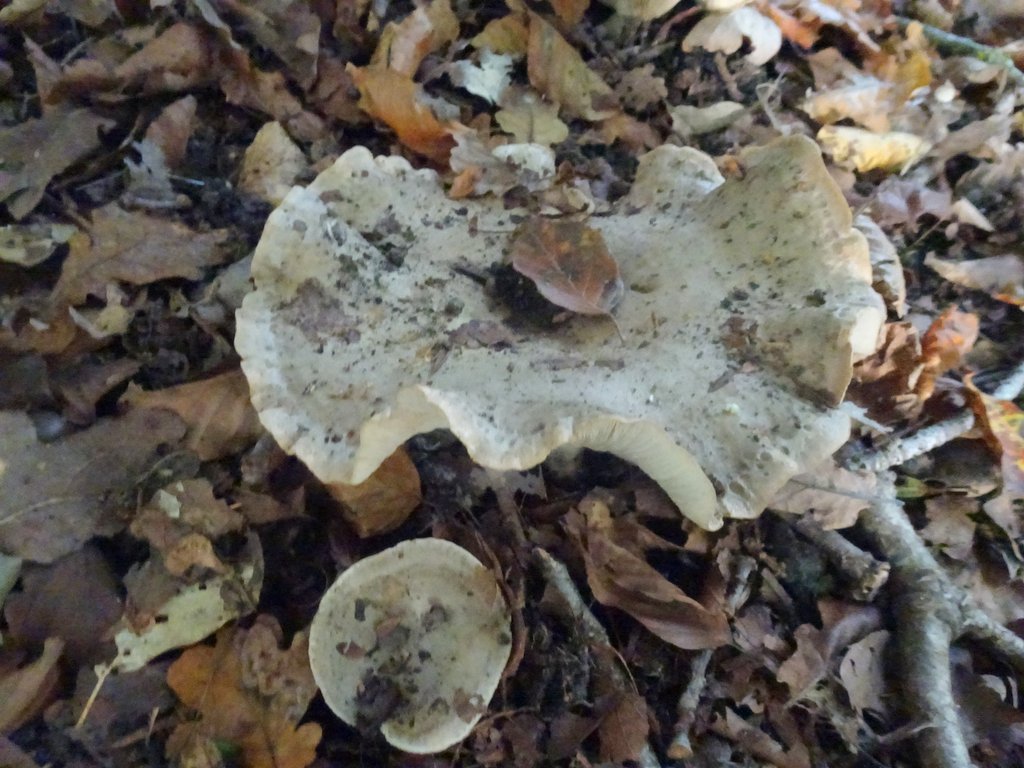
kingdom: Fungi
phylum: Basidiomycota
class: Agaricomycetes
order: Russulales
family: Russulaceae
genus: Lactarius
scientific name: Lactarius fluens
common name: lysrandet mælkehat
